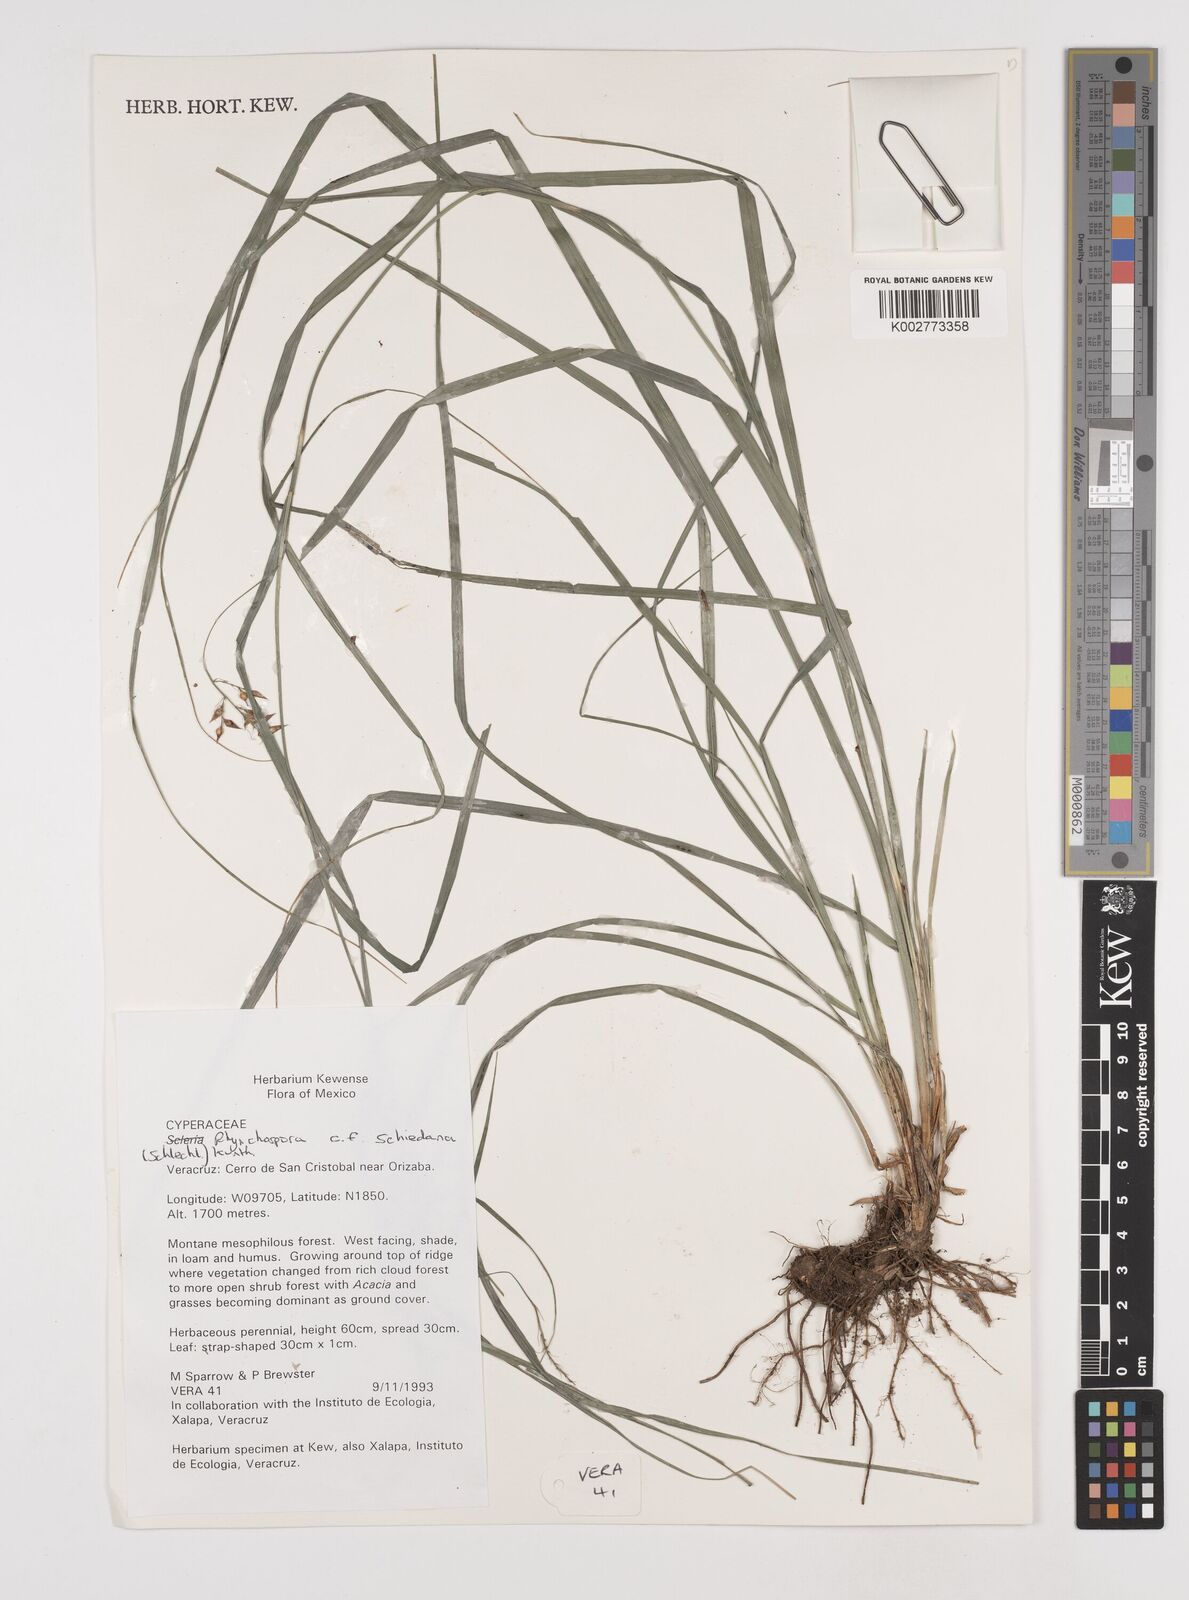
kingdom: Plantae
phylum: Tracheophyta
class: Liliopsida
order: Poales
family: Cyperaceae
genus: Rhynchospora
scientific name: Rhynchospora schiedeana
